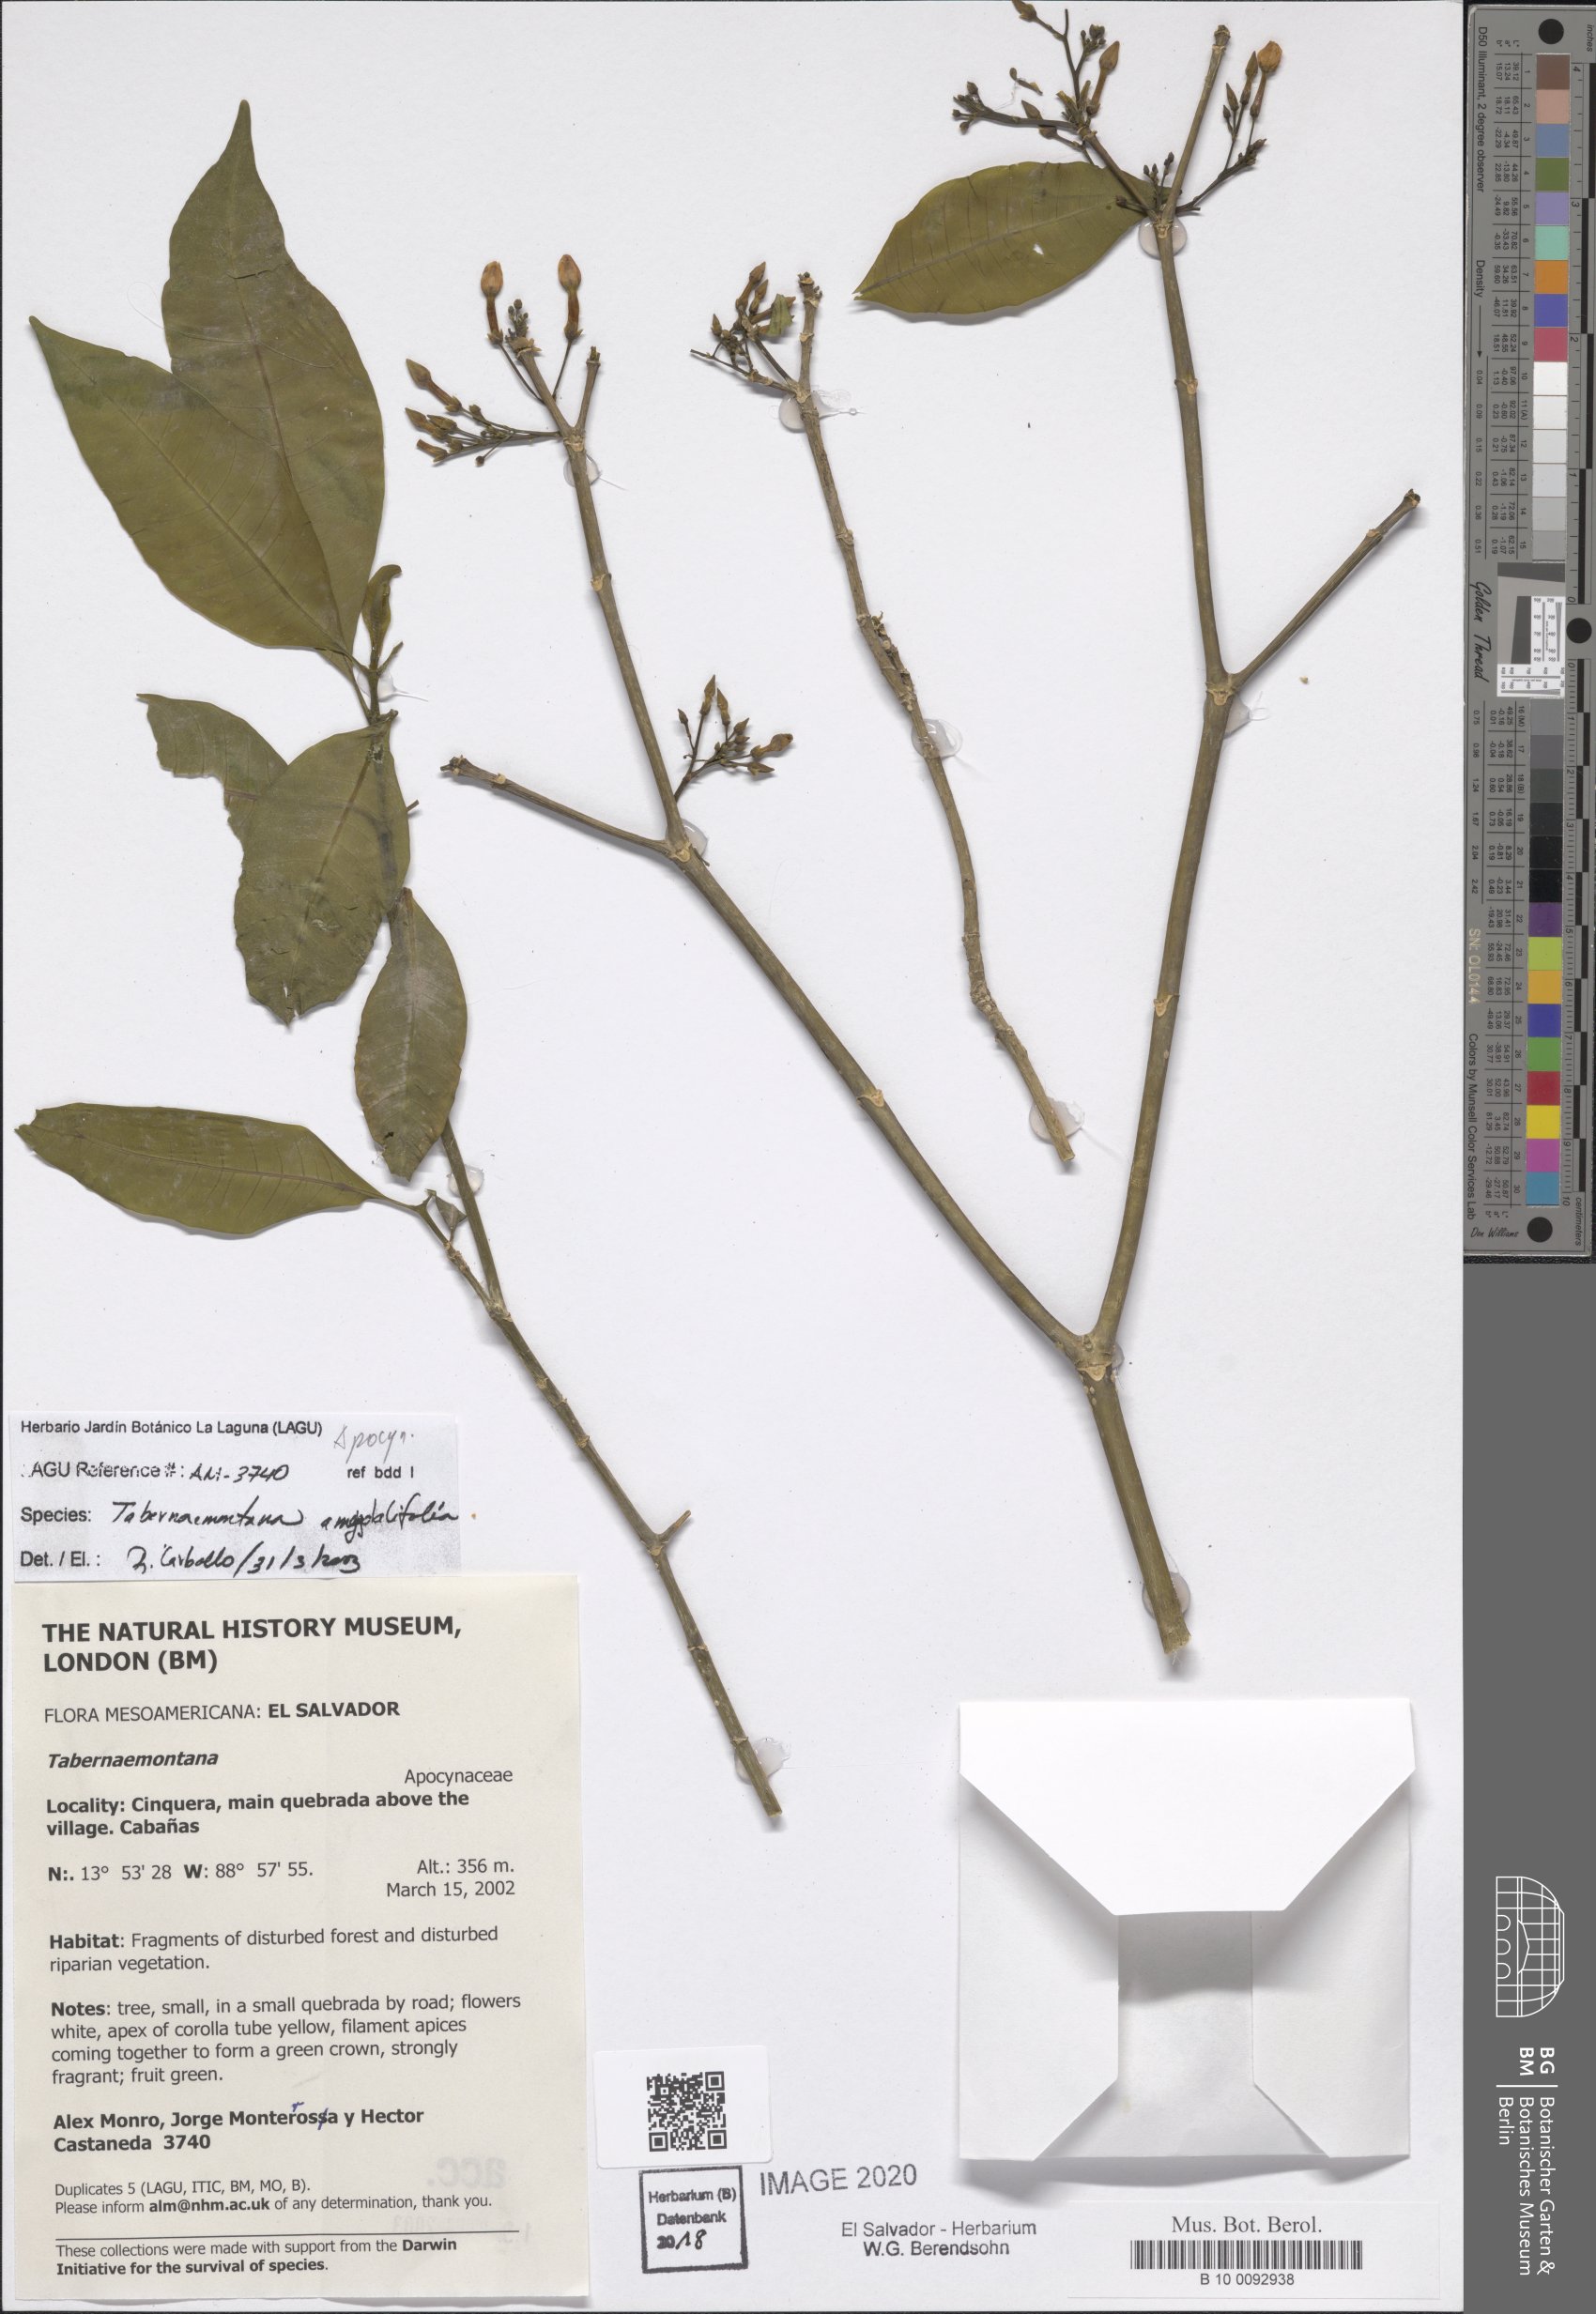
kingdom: Plantae
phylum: Tracheophyta
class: Magnoliopsida
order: Gentianales
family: Apocynaceae
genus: Tabernaemontana
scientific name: Tabernaemontana amygdalifolia
